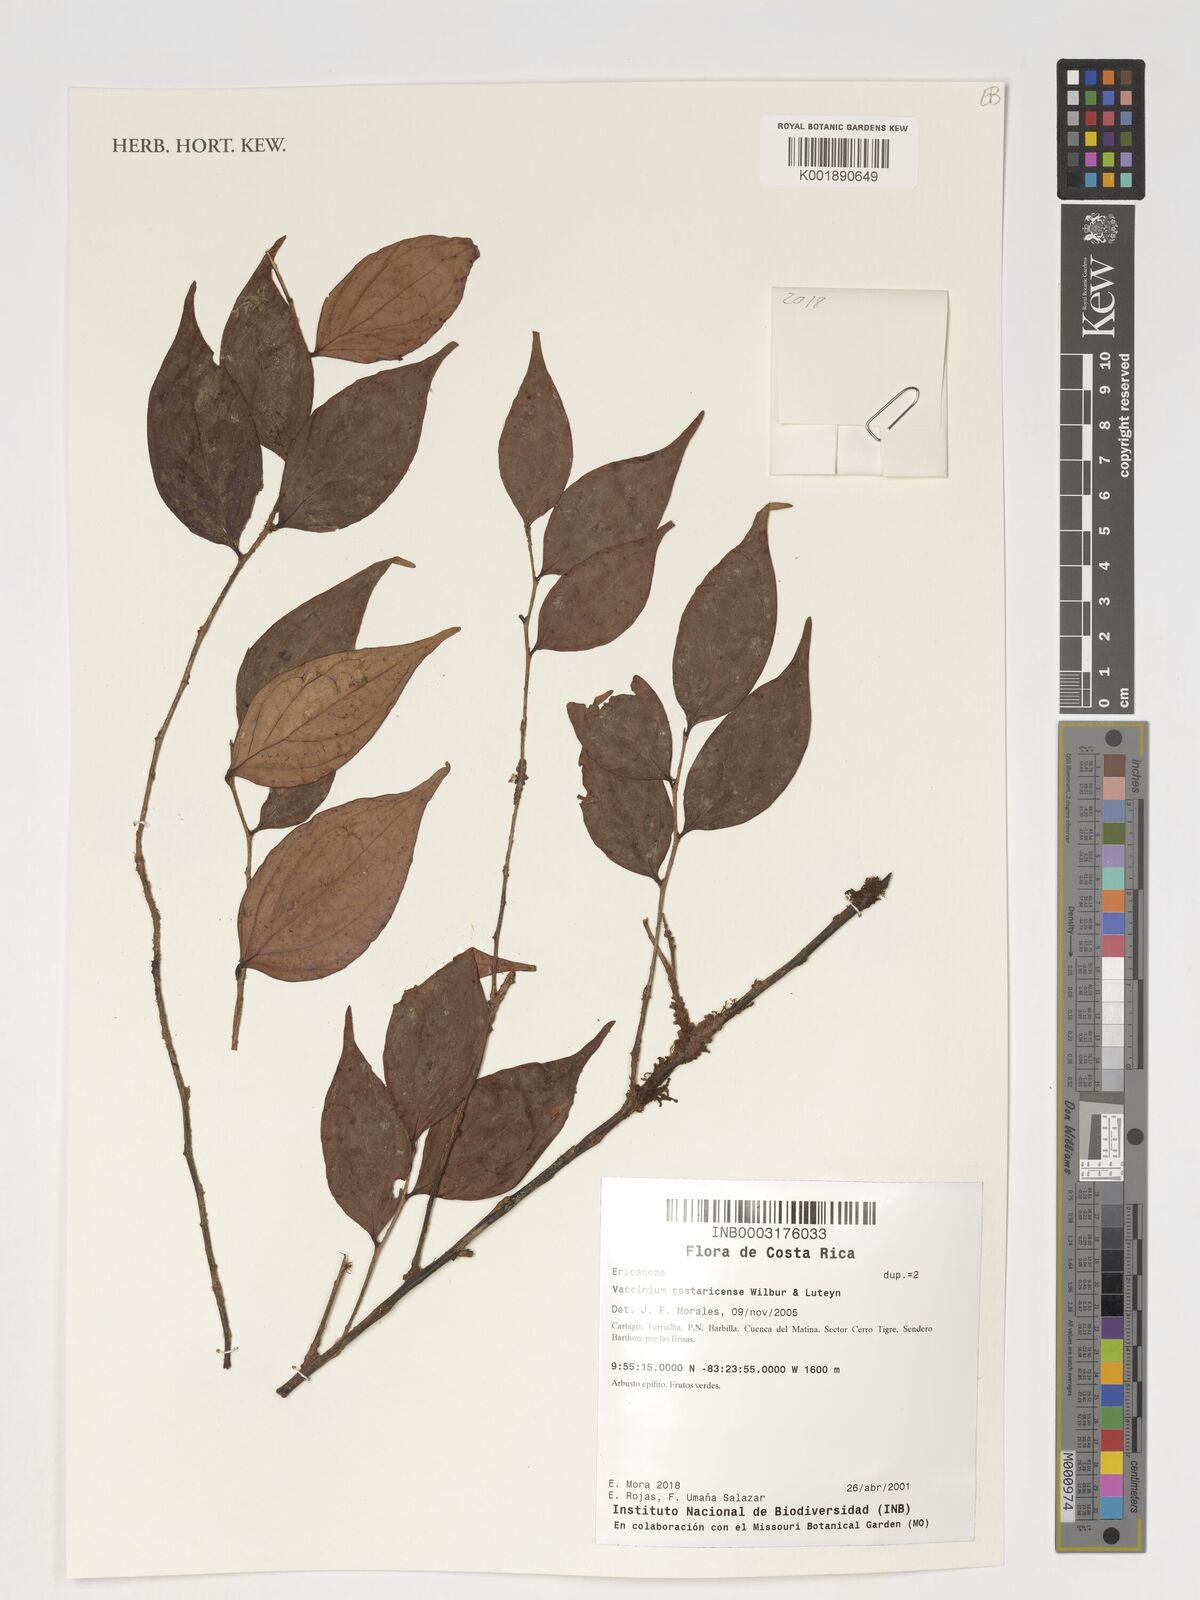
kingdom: Plantae
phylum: Tracheophyta
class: Magnoliopsida
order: Ericales
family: Ericaceae
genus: Symphysia
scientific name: Symphysia costaricensis
